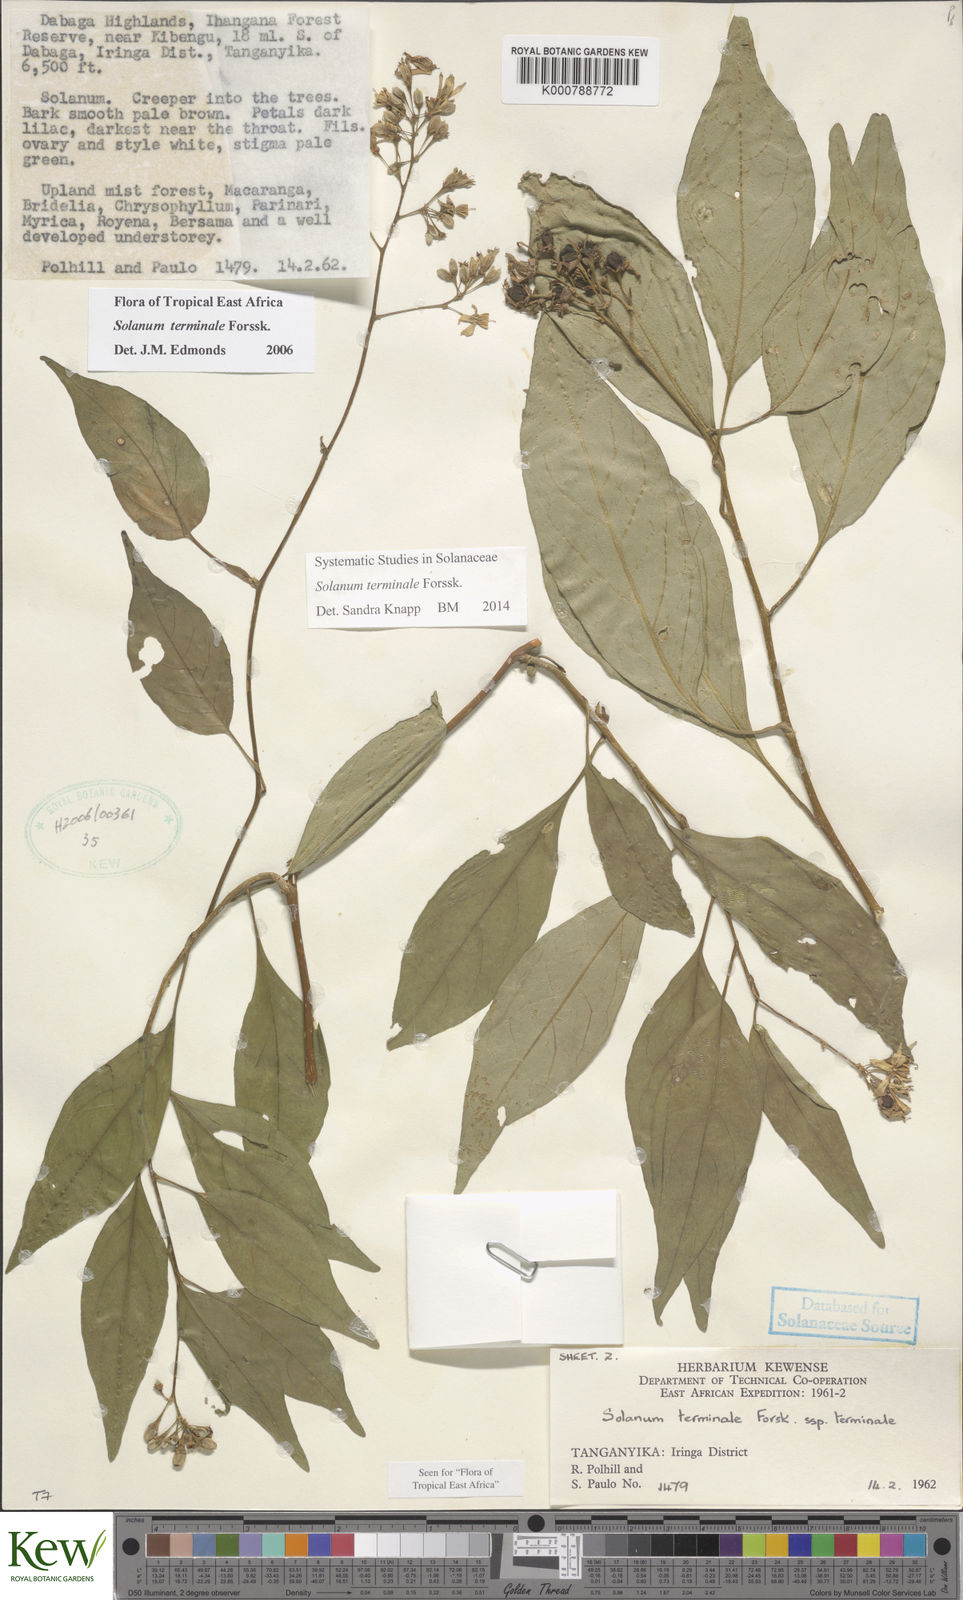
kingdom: Plantae
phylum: Tracheophyta
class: Magnoliopsida
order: Solanales
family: Solanaceae
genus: Solanum
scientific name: Solanum terminale
